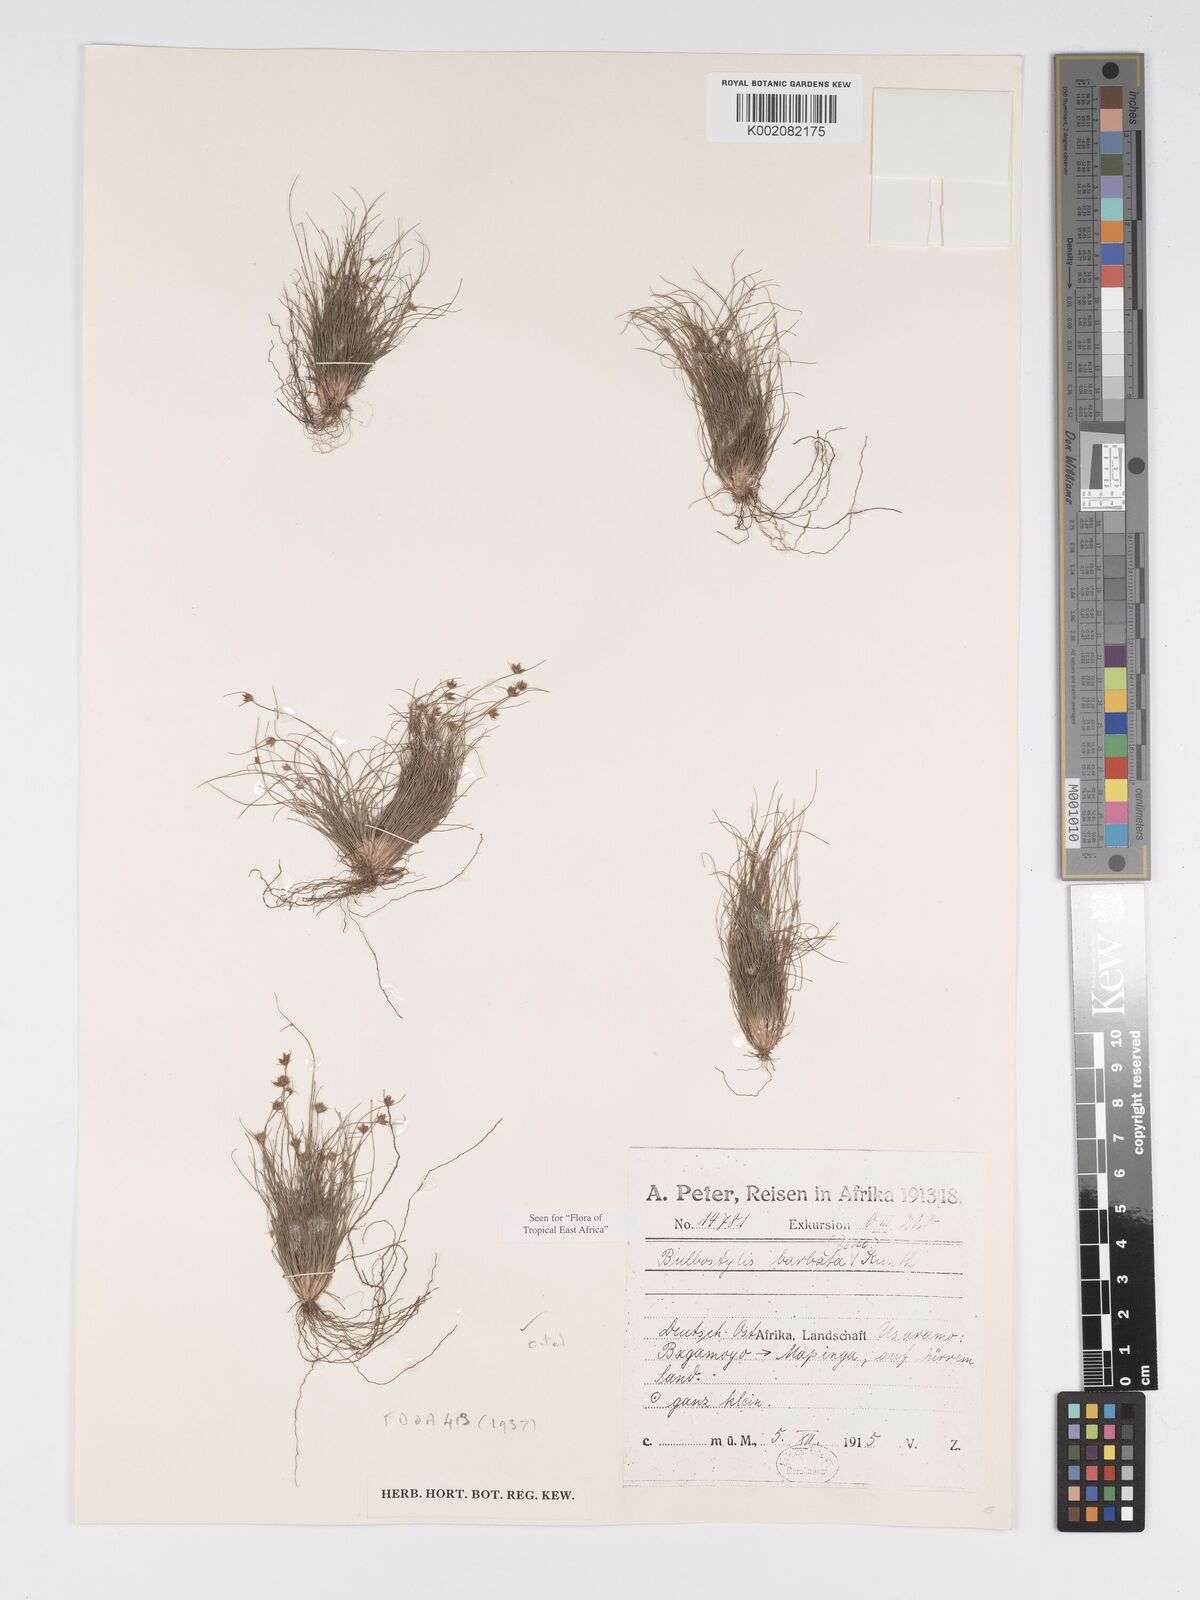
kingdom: Plantae
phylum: Tracheophyta
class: Liliopsida
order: Poales
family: Cyperaceae
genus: Bulbostylis
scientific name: Bulbostylis barbata
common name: Watergrass
